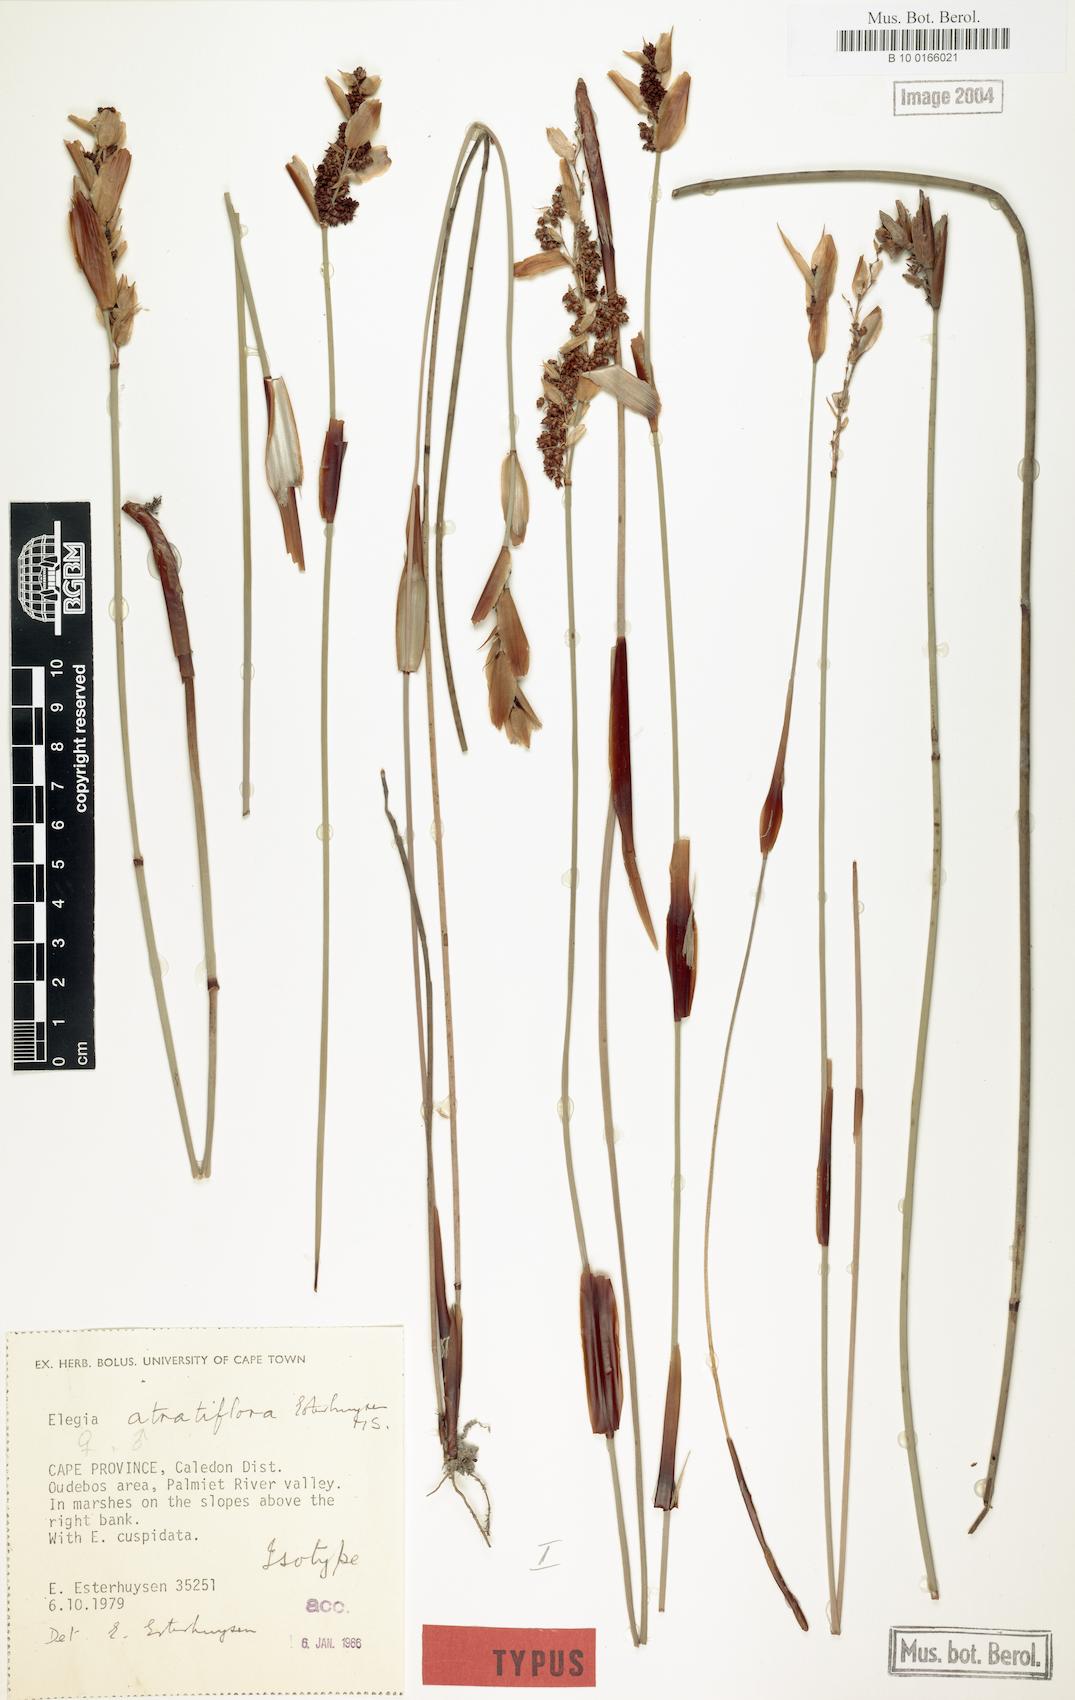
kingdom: Plantae
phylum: Tracheophyta
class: Liliopsida
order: Poales
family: Restionaceae
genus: Elegia
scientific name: Elegia atratiflora
